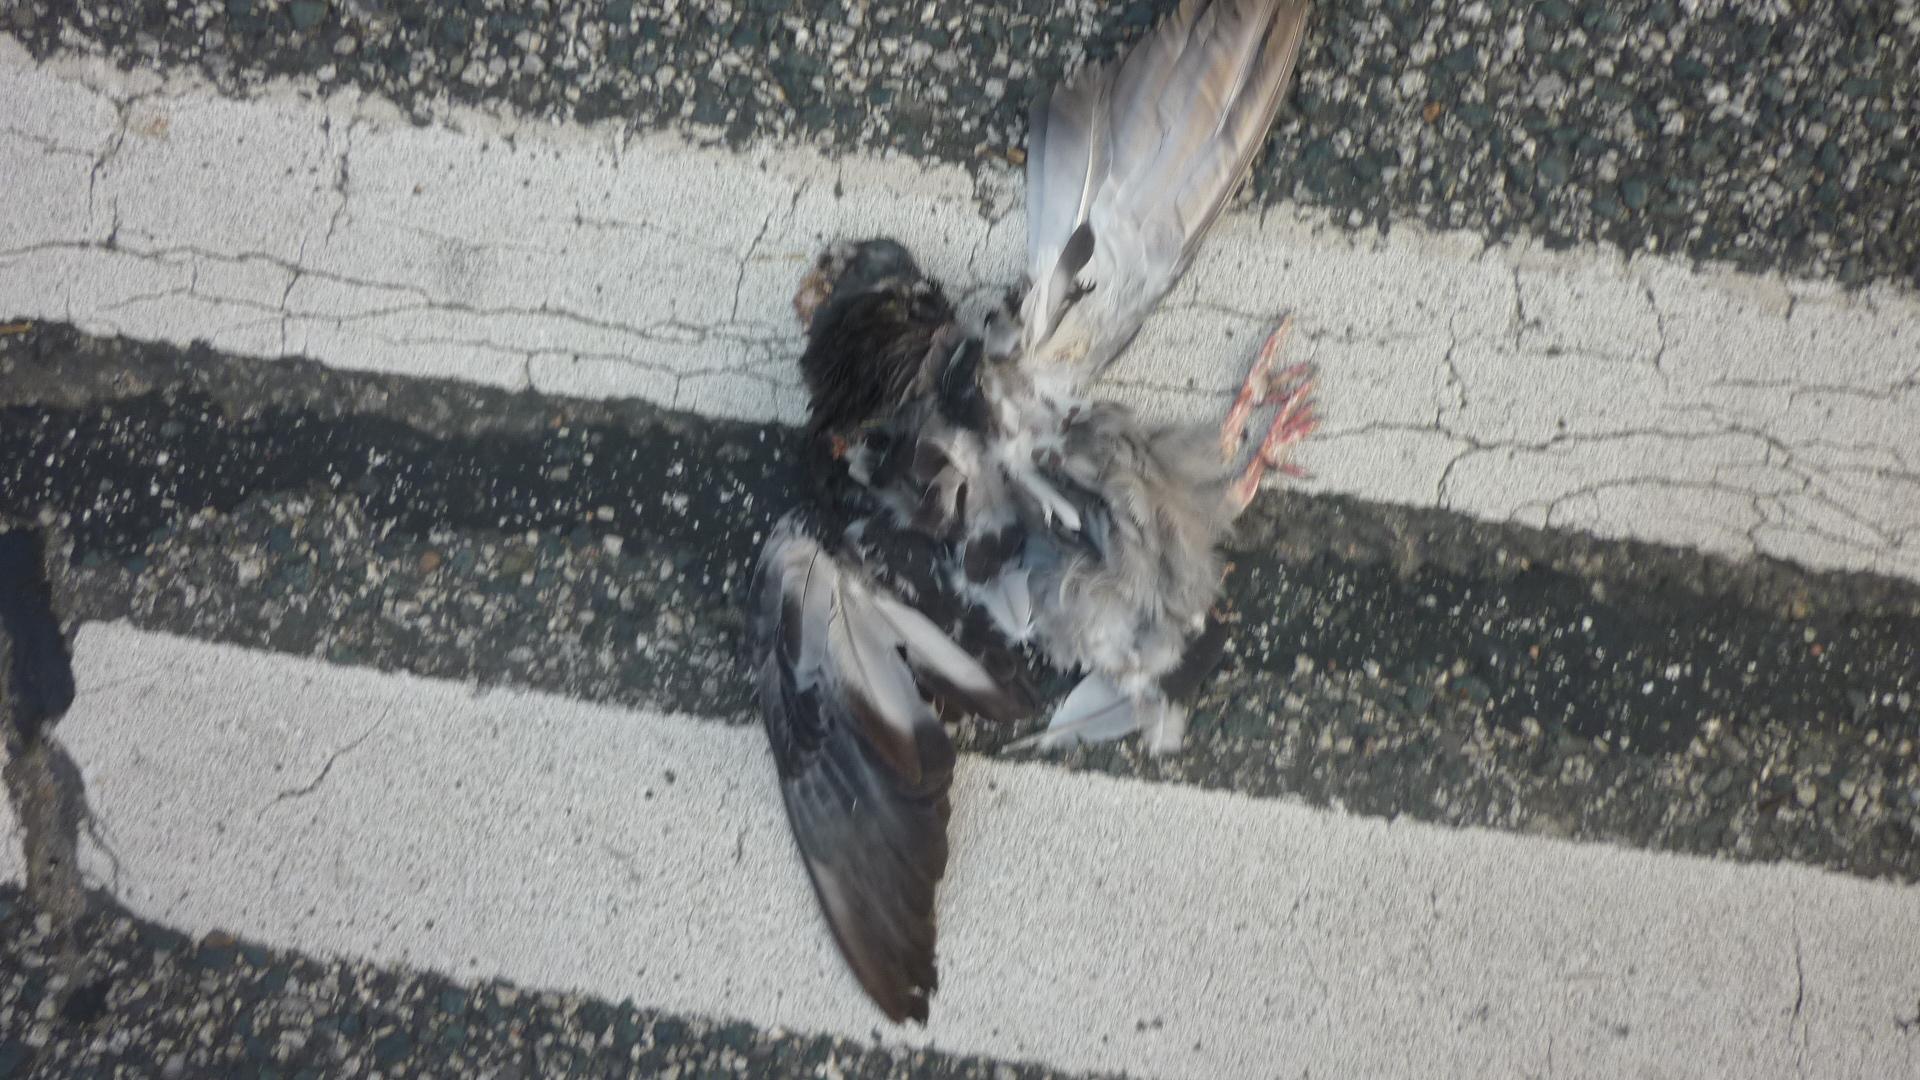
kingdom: Animalia
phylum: Chordata
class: Aves
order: Columbiformes
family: Columbidae
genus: Columba
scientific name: Columba livia
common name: Rock pigeon
